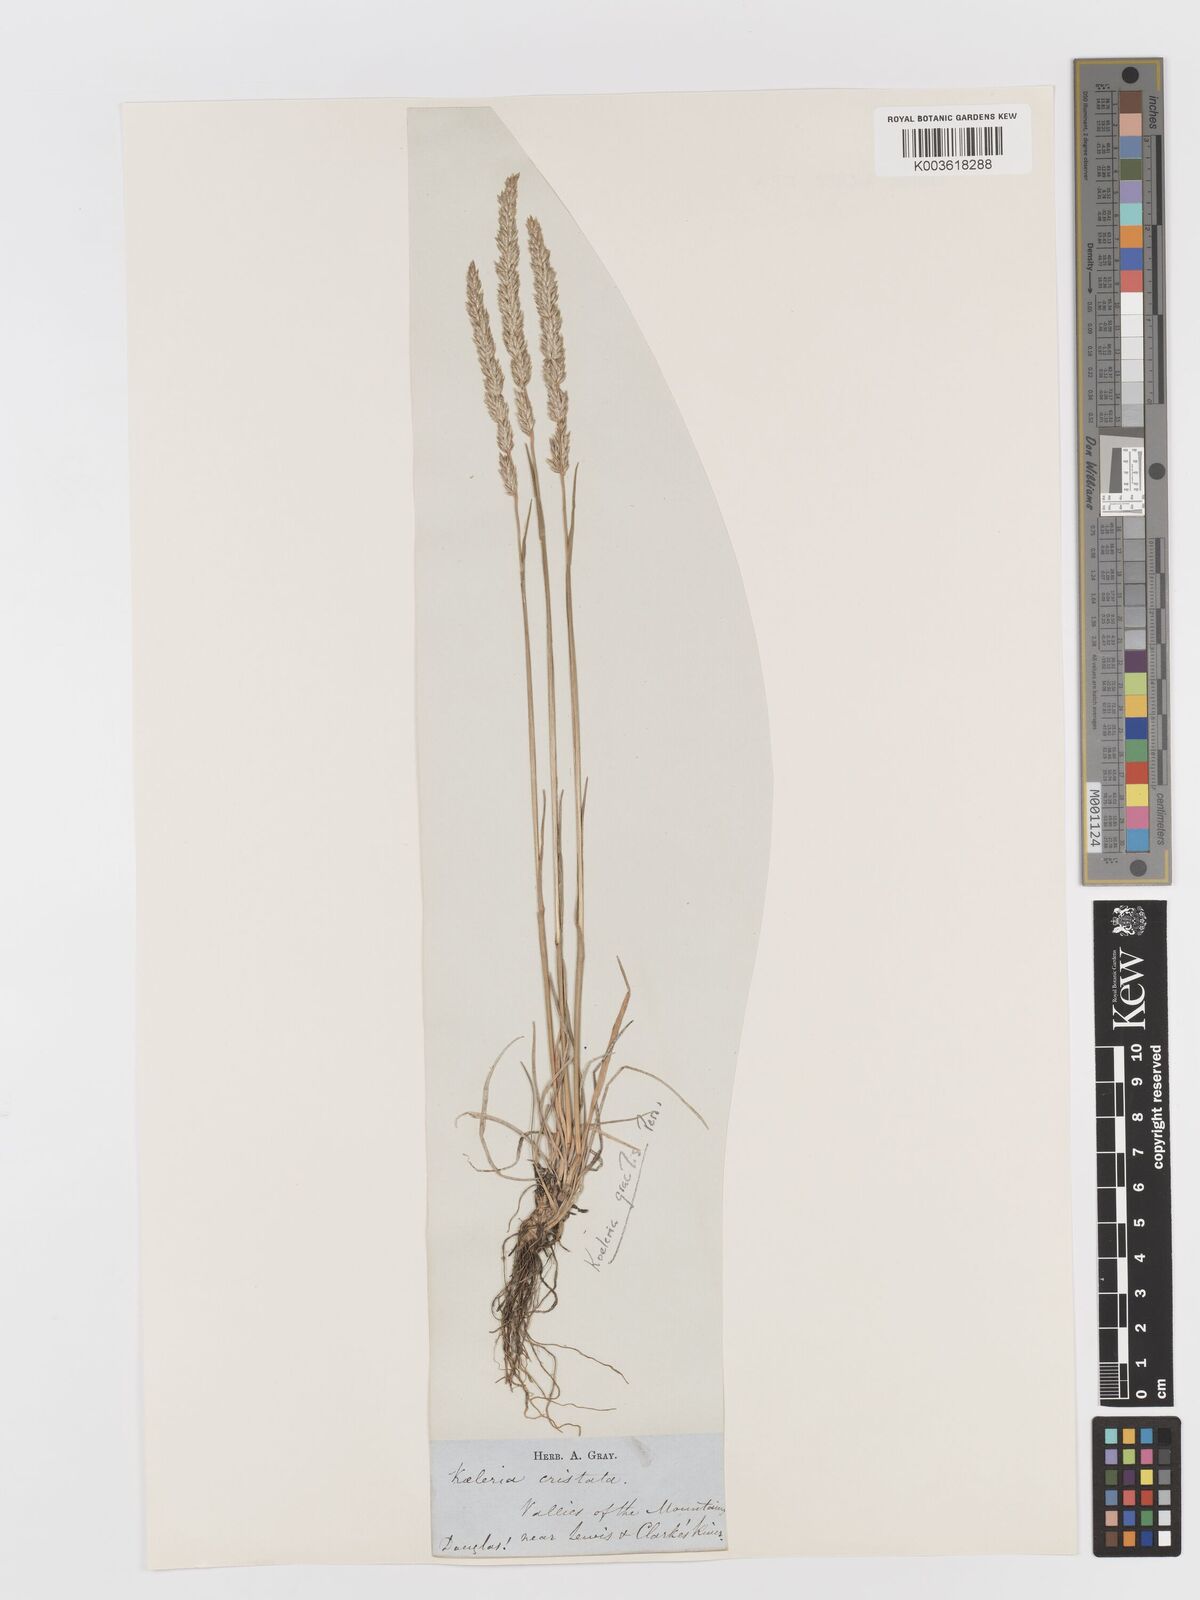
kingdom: Plantae
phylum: Tracheophyta
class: Liliopsida
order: Poales
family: Poaceae
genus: Koeleria
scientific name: Koeleria macrantha
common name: Crested hair-grass
